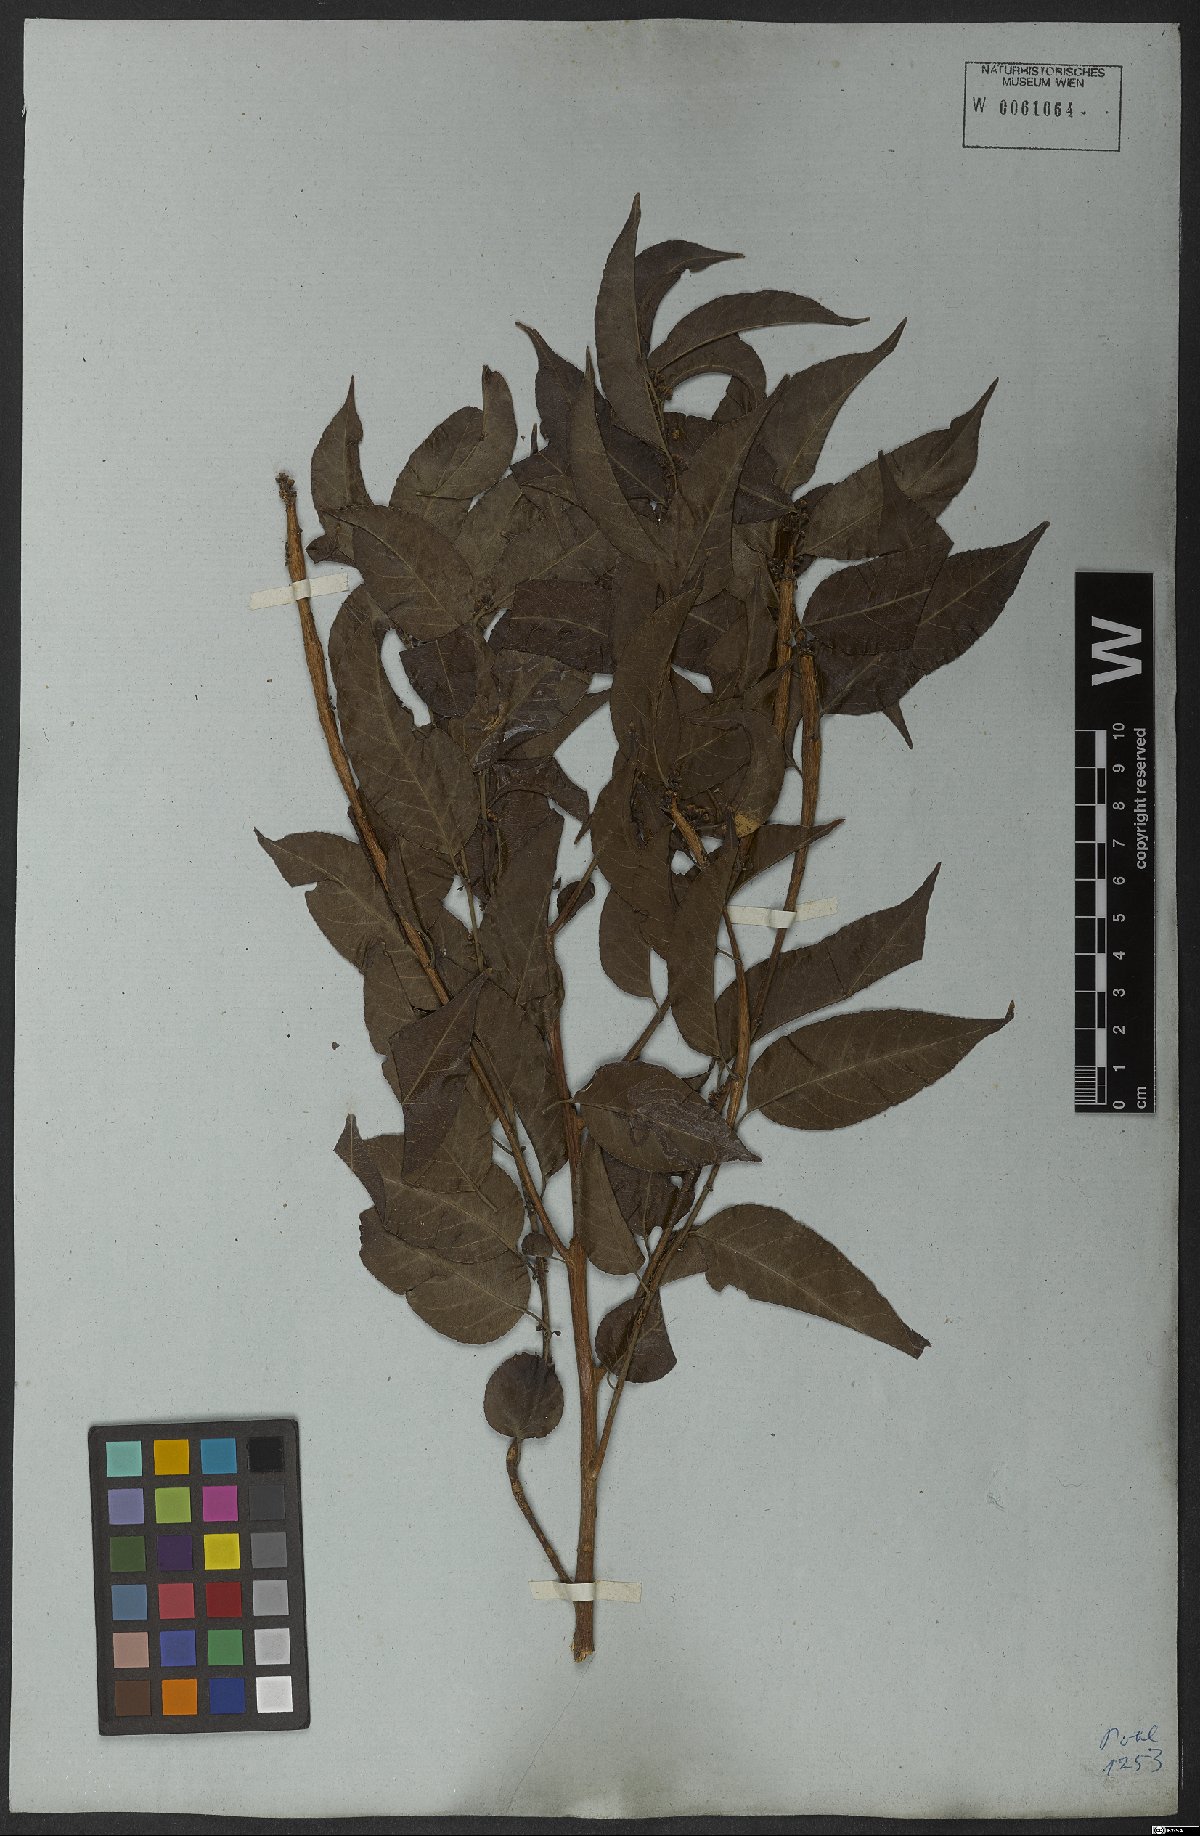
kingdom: Plantae
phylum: Tracheophyta
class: Magnoliopsida
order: Malpighiales
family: Salicaceae
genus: Casearia
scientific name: Casearia sylvestris
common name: Wild sage
